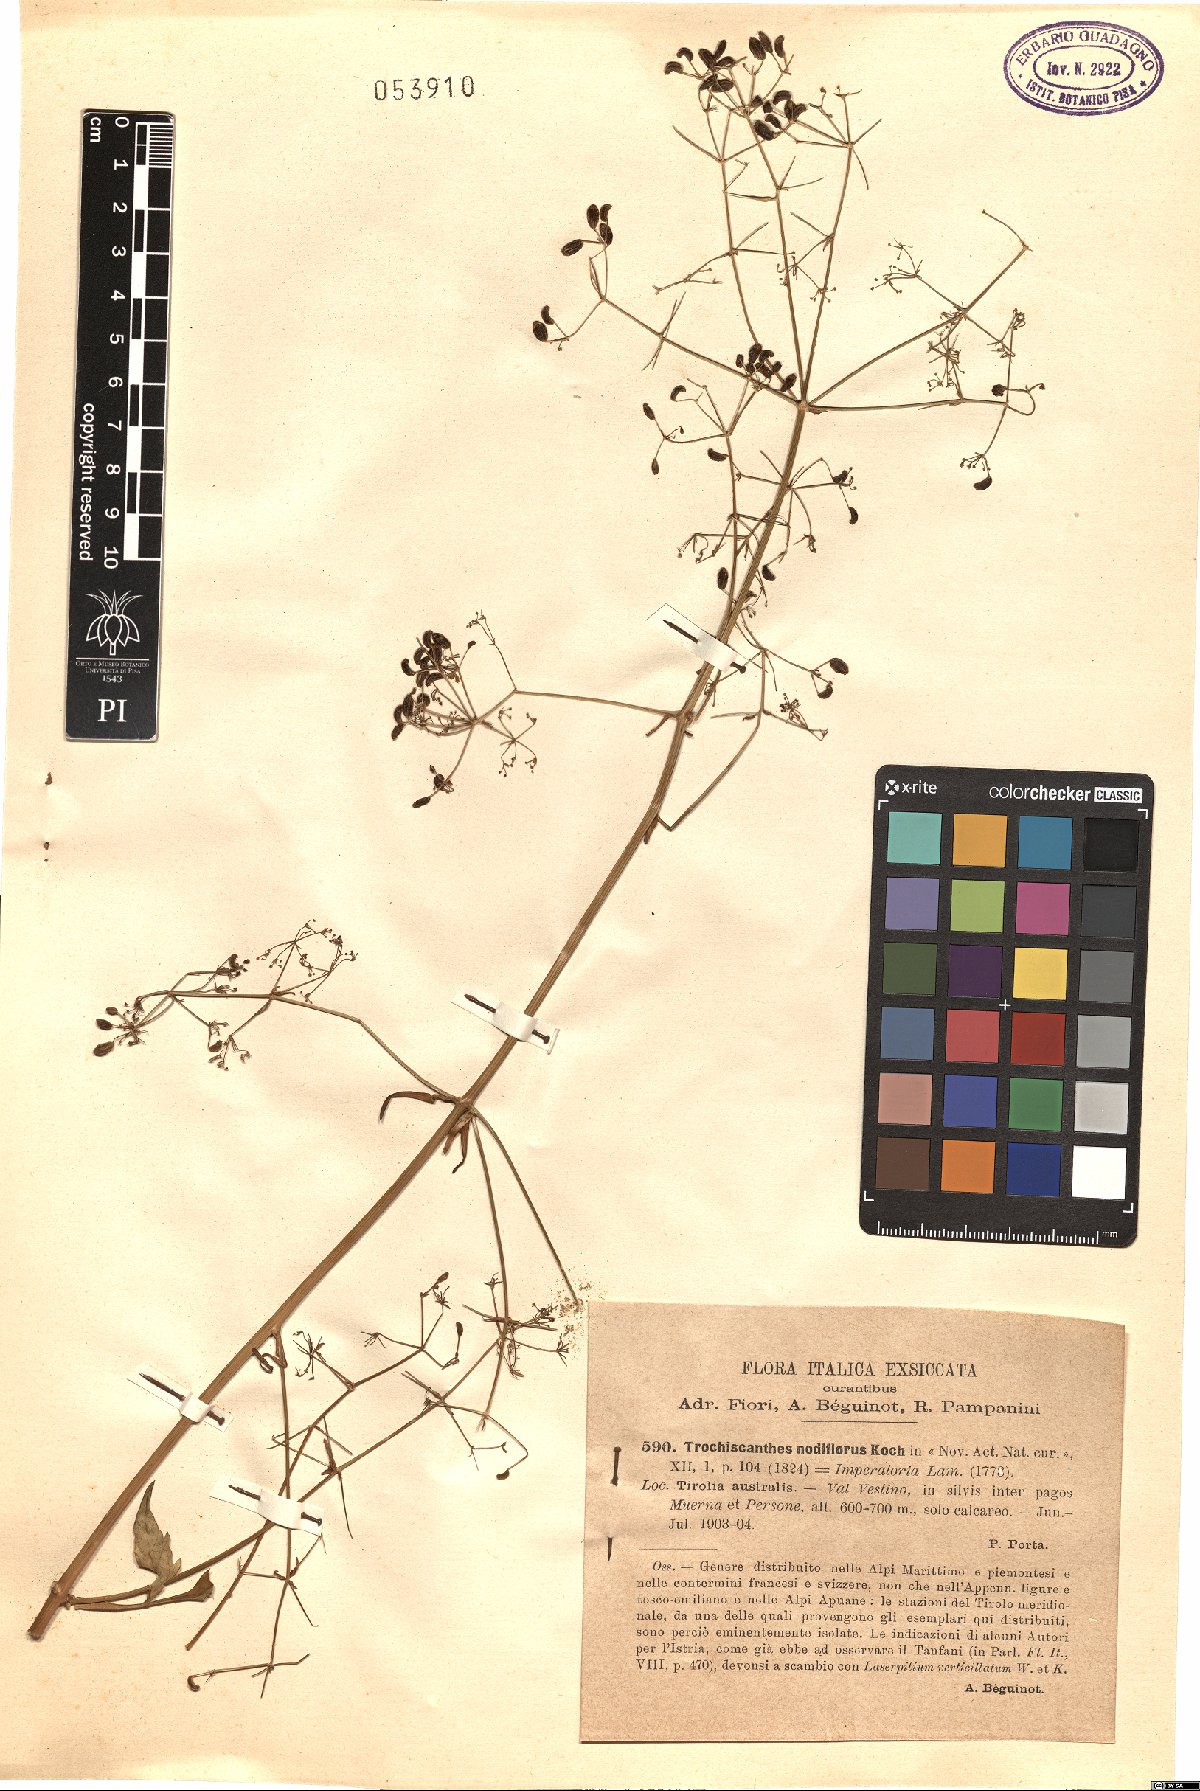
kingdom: Plantae
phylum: Tracheophyta
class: Magnoliopsida
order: Apiales
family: Apiaceae
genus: Trochiscanthes
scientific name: Trochiscanthes nodiflora
